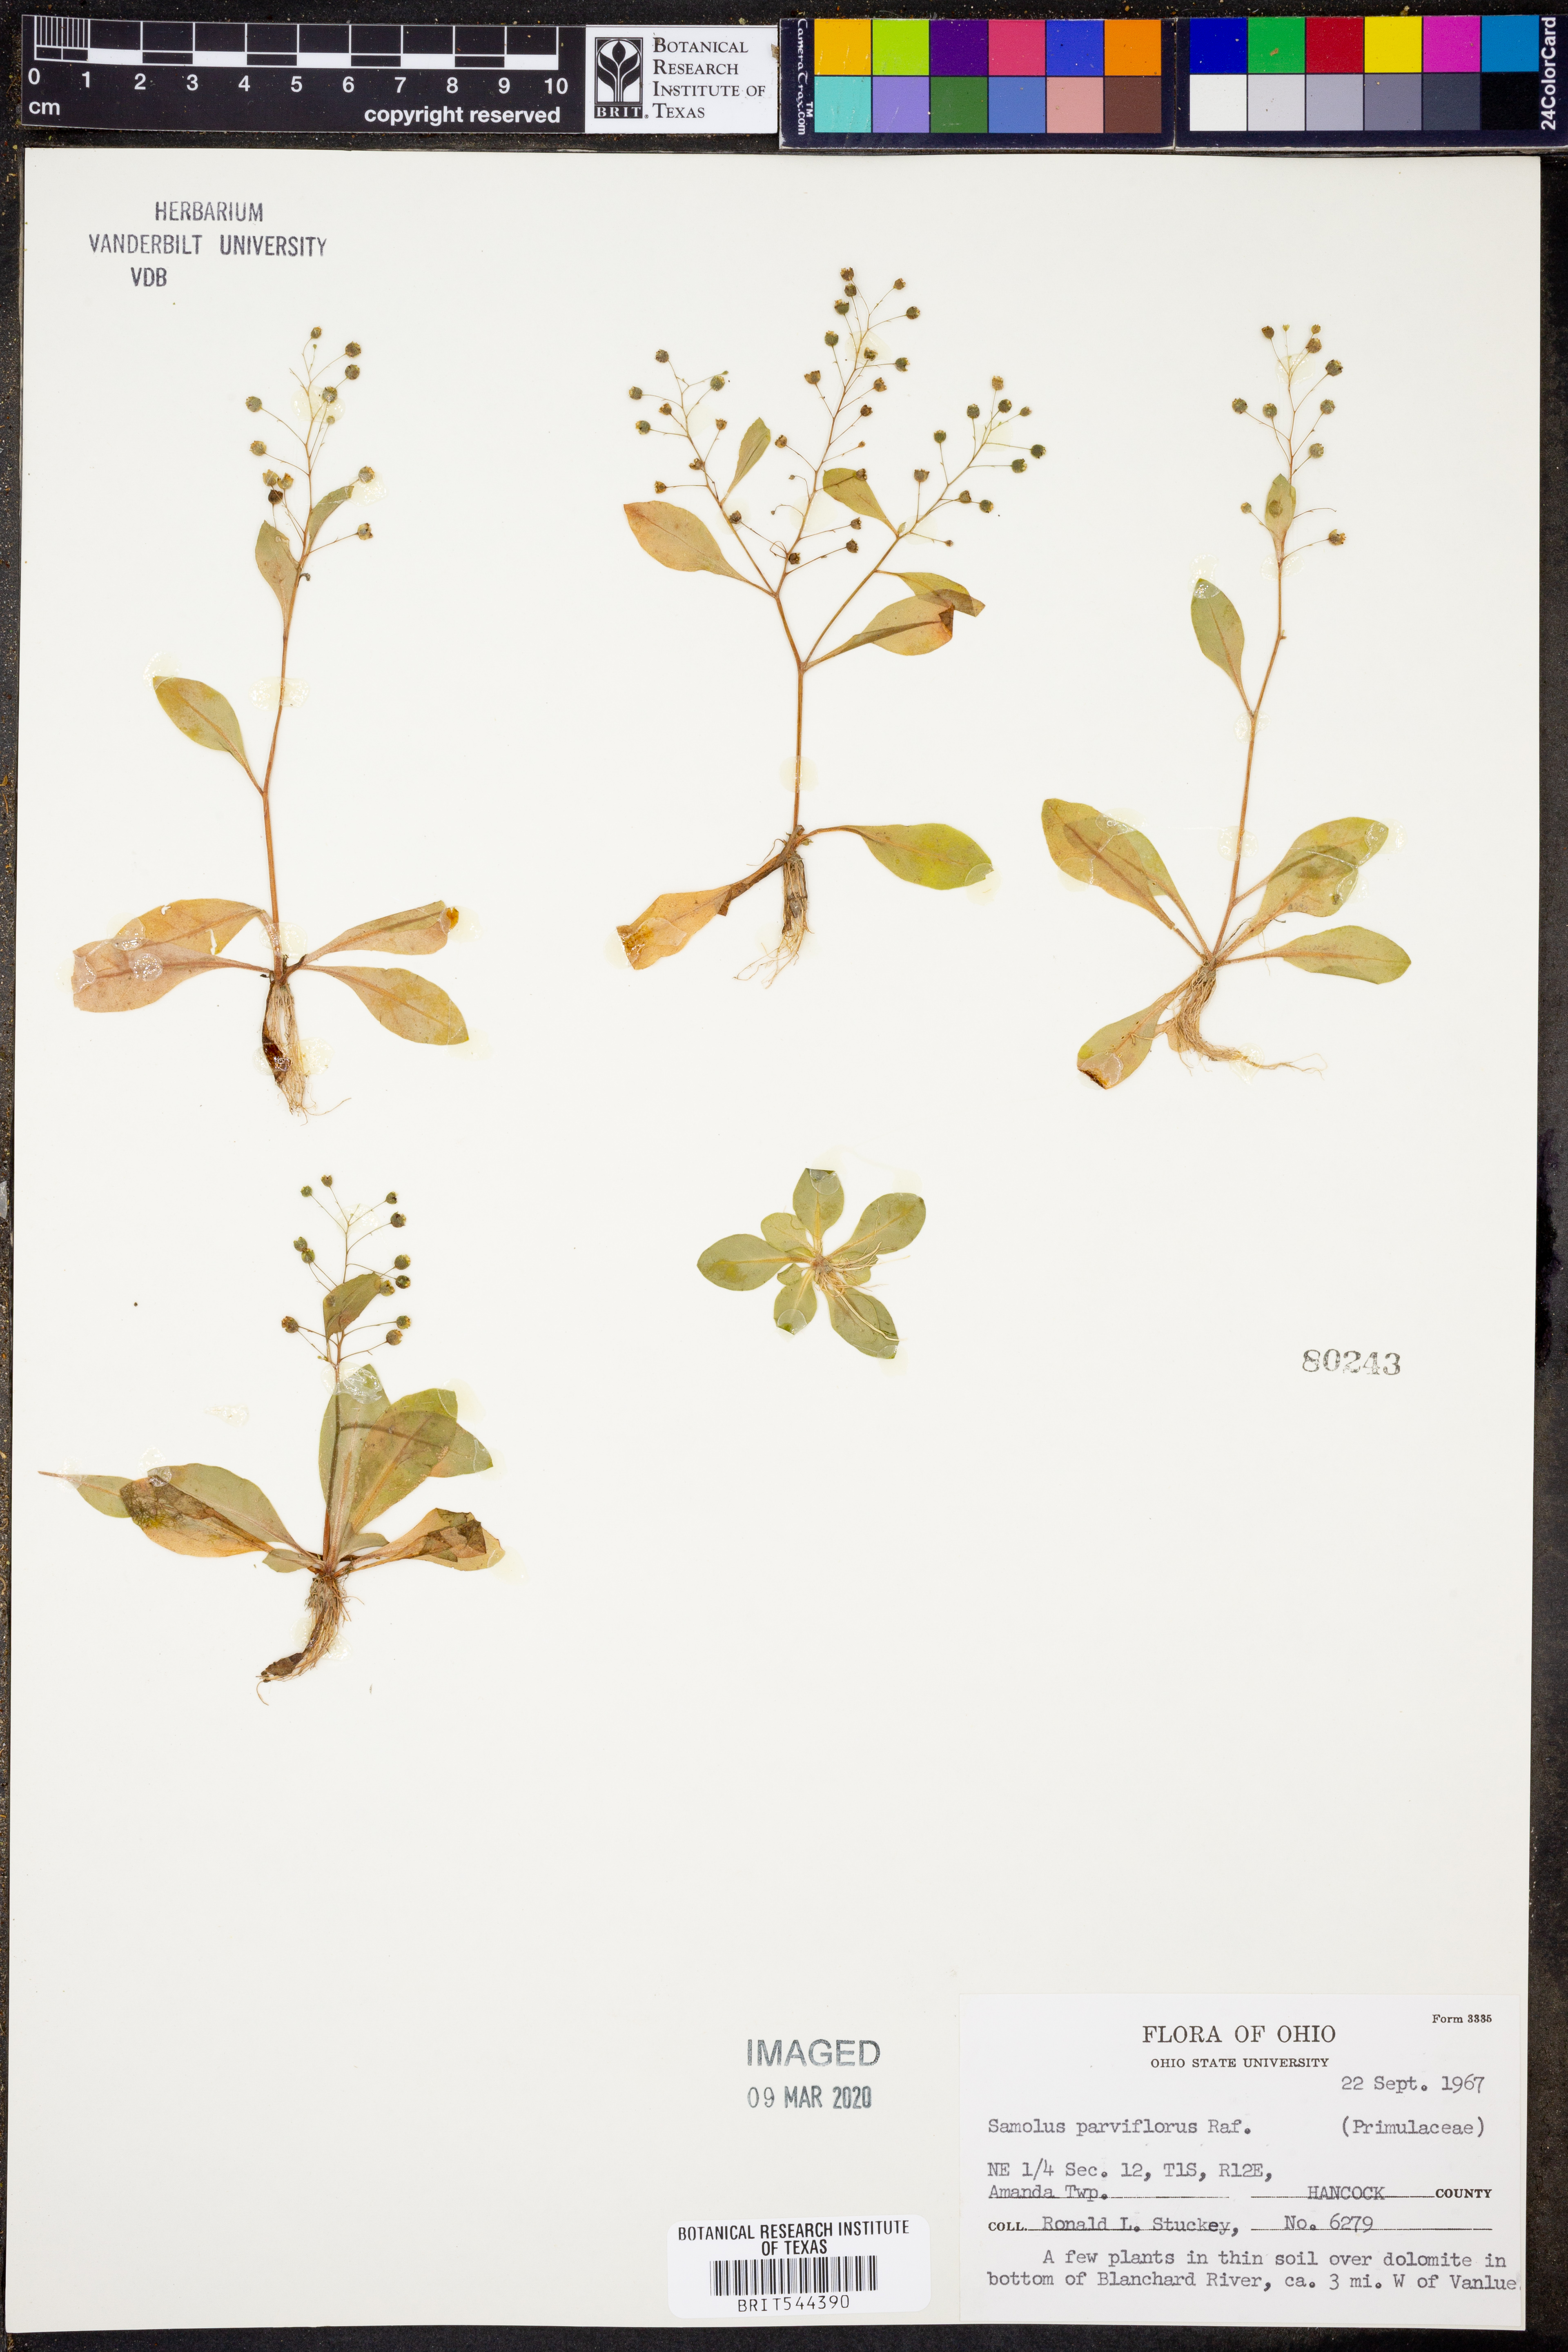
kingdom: Plantae
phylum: Tracheophyta
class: Magnoliopsida
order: Ericales
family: Primulaceae
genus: Samolus
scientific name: Samolus parviflorus
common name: False water pimpernel
